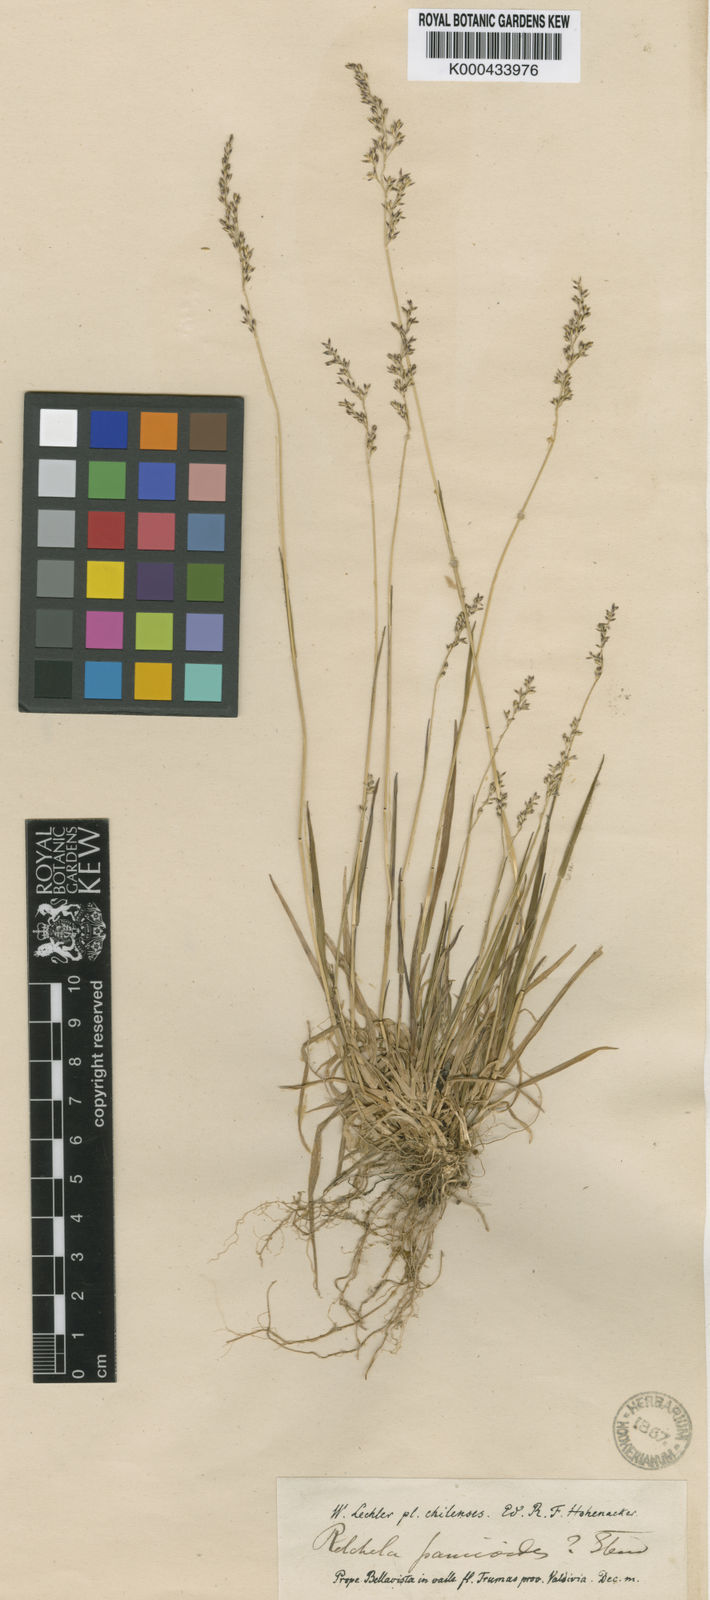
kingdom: Plantae
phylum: Tracheophyta
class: Liliopsida
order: Poales
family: Poaceae
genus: Relchela
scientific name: Relchela panicoides
